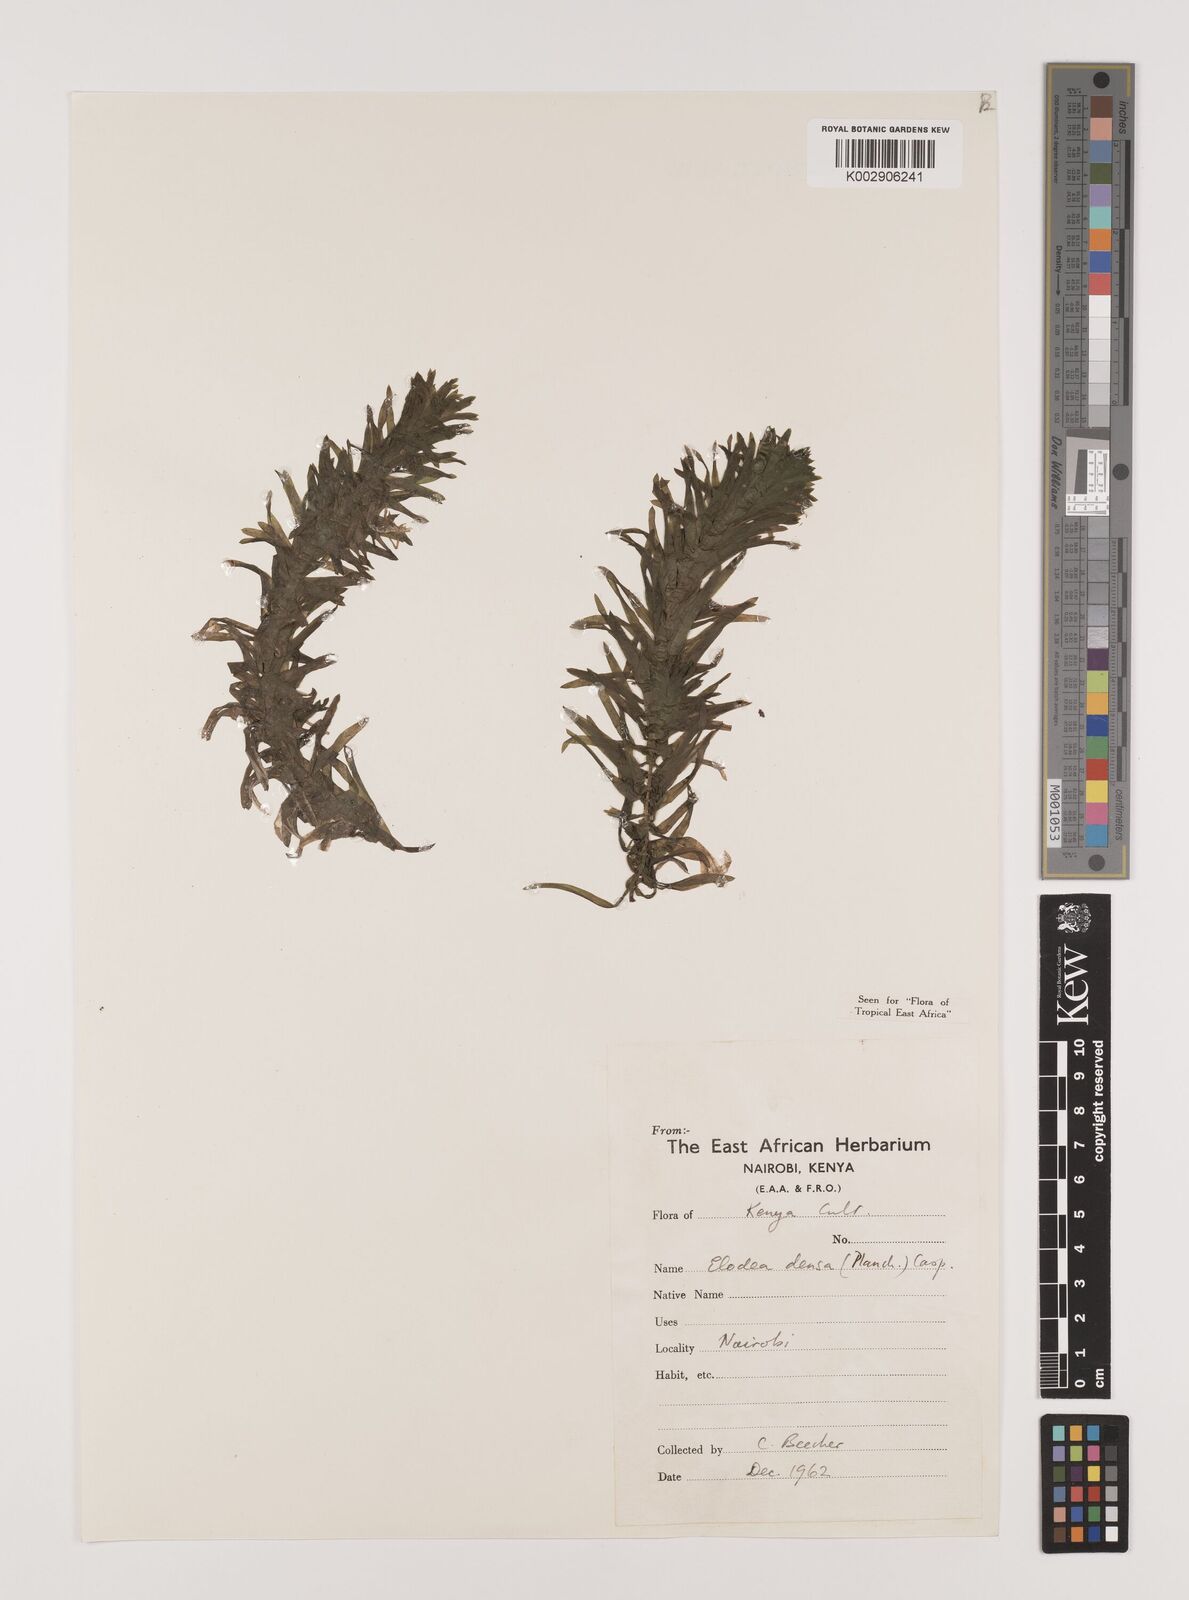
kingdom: Plantae
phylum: Tracheophyta
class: Liliopsida
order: Alismatales
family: Hydrocharitaceae
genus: Elodea
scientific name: Elodea densa
